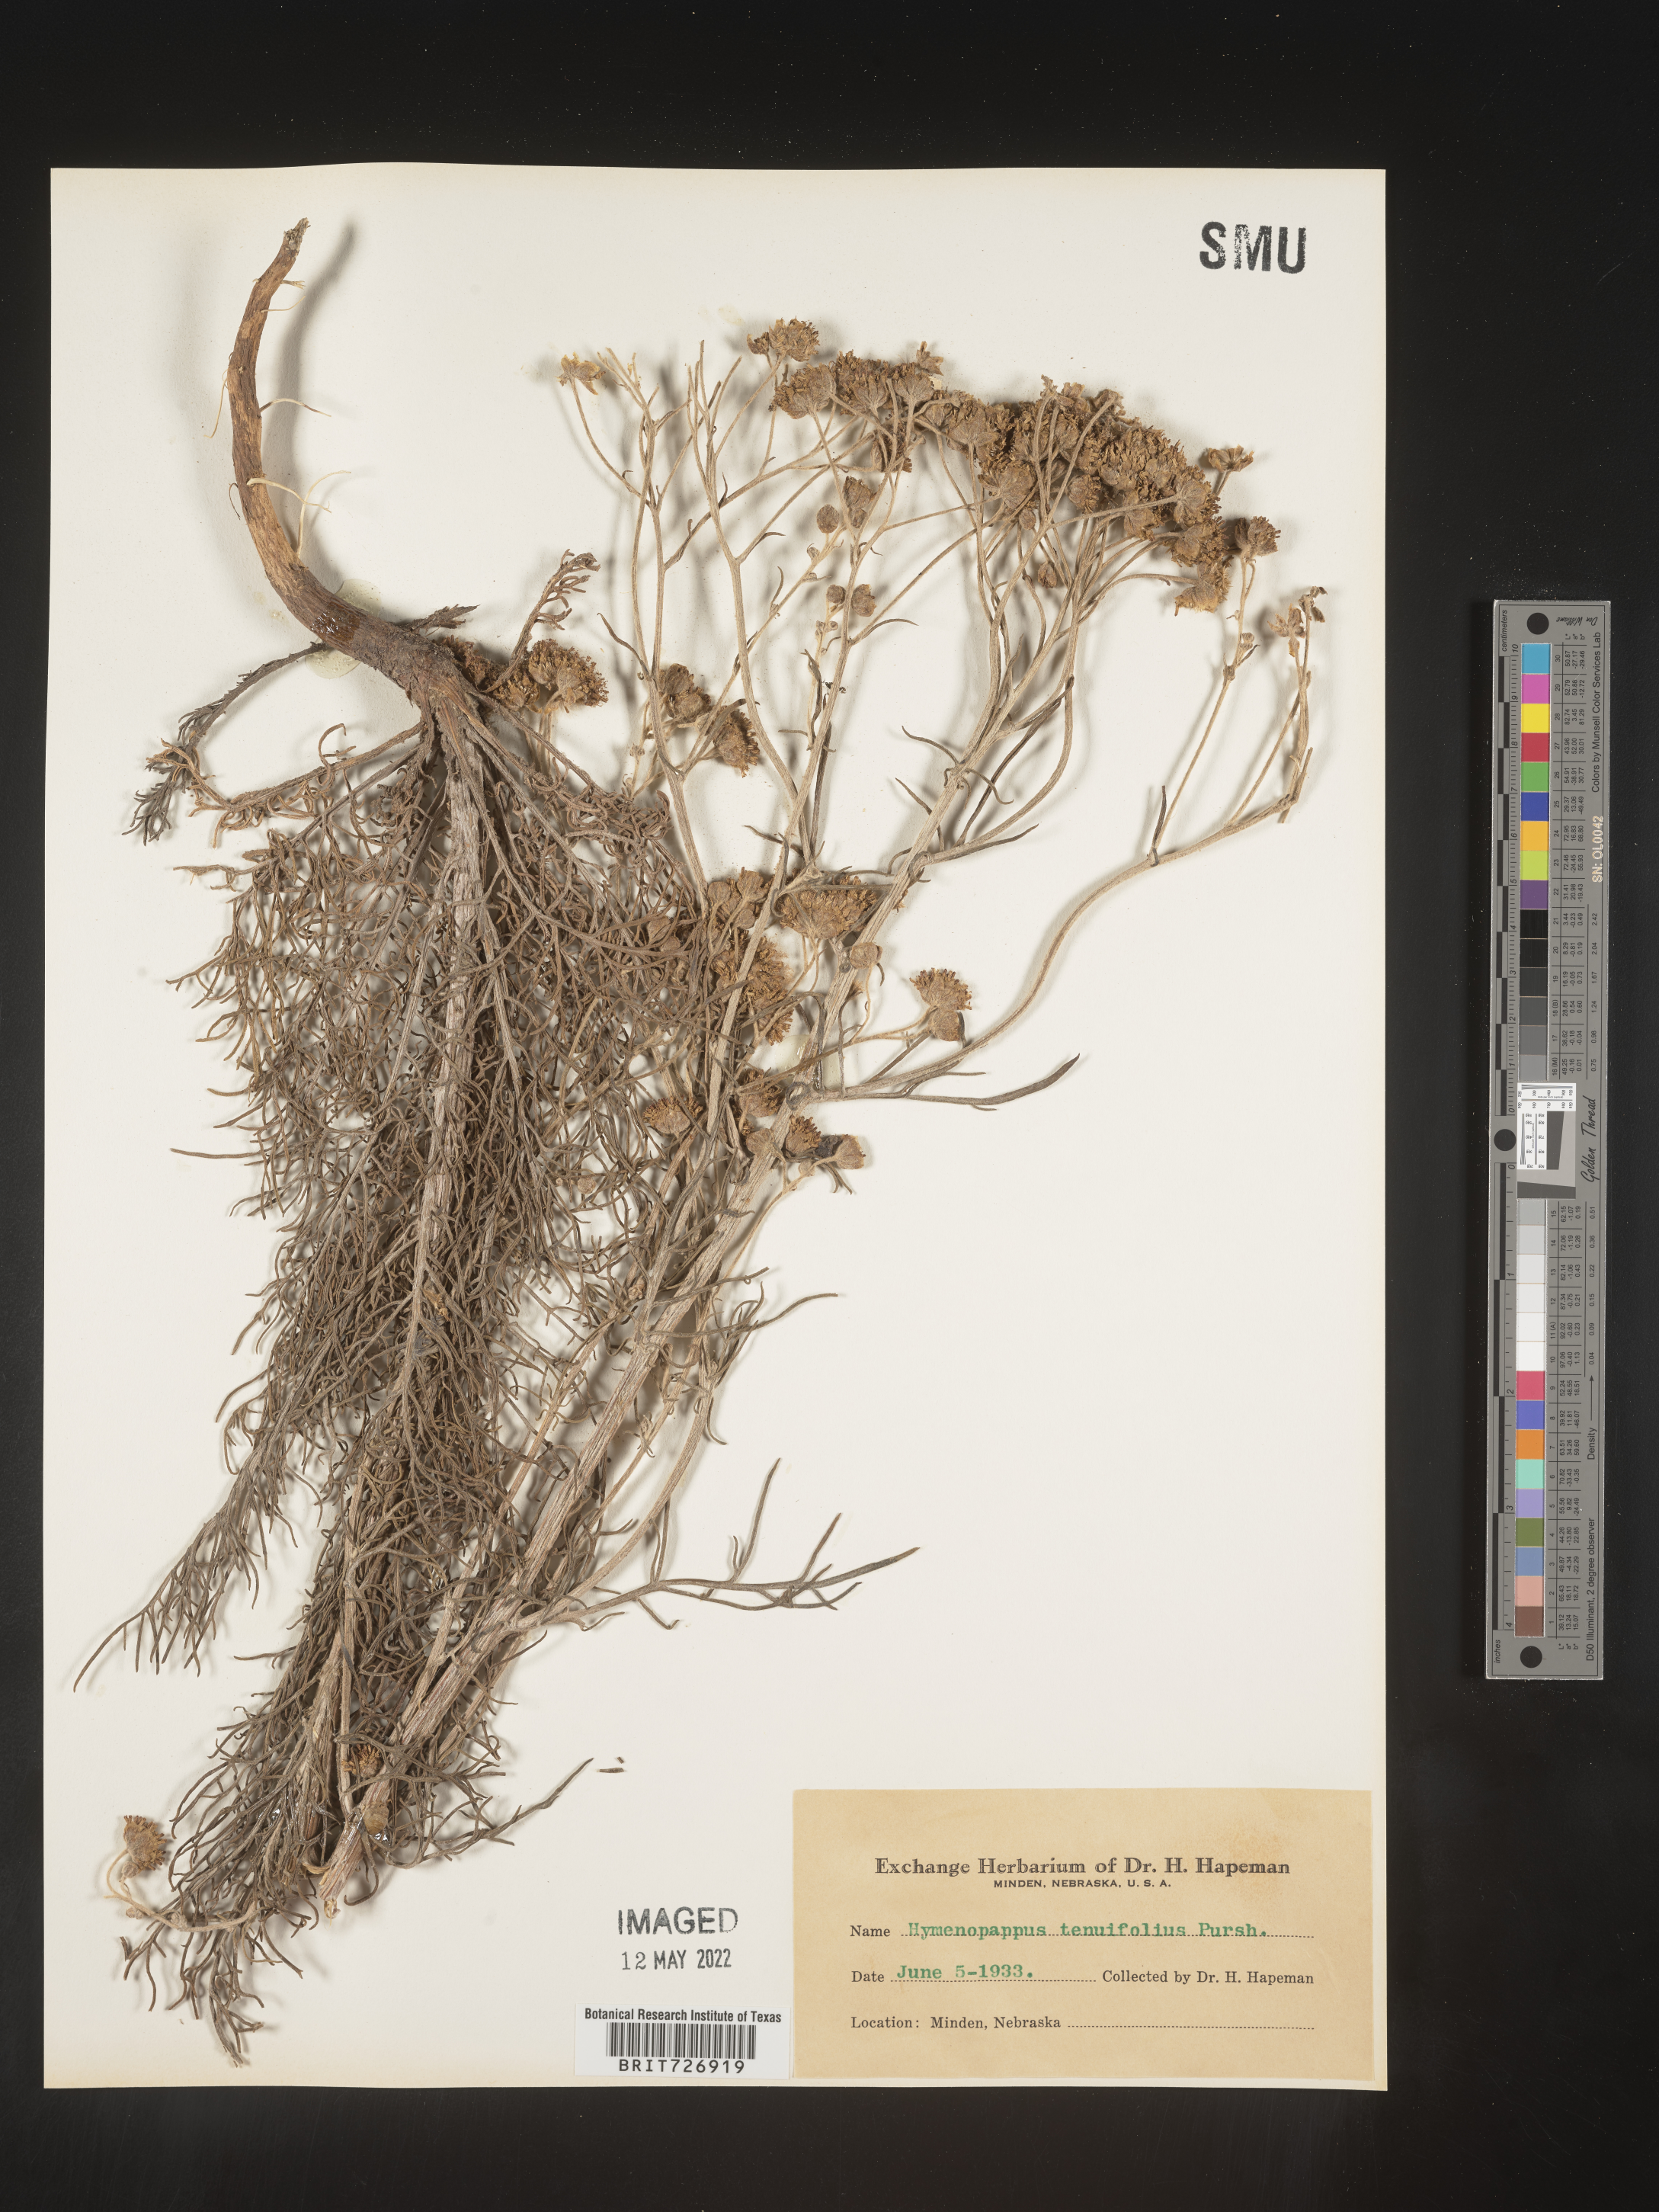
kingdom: Plantae
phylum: Tracheophyta
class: Magnoliopsida
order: Asterales
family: Asteraceae
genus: Hymenopappus
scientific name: Hymenopappus tenuifolius
